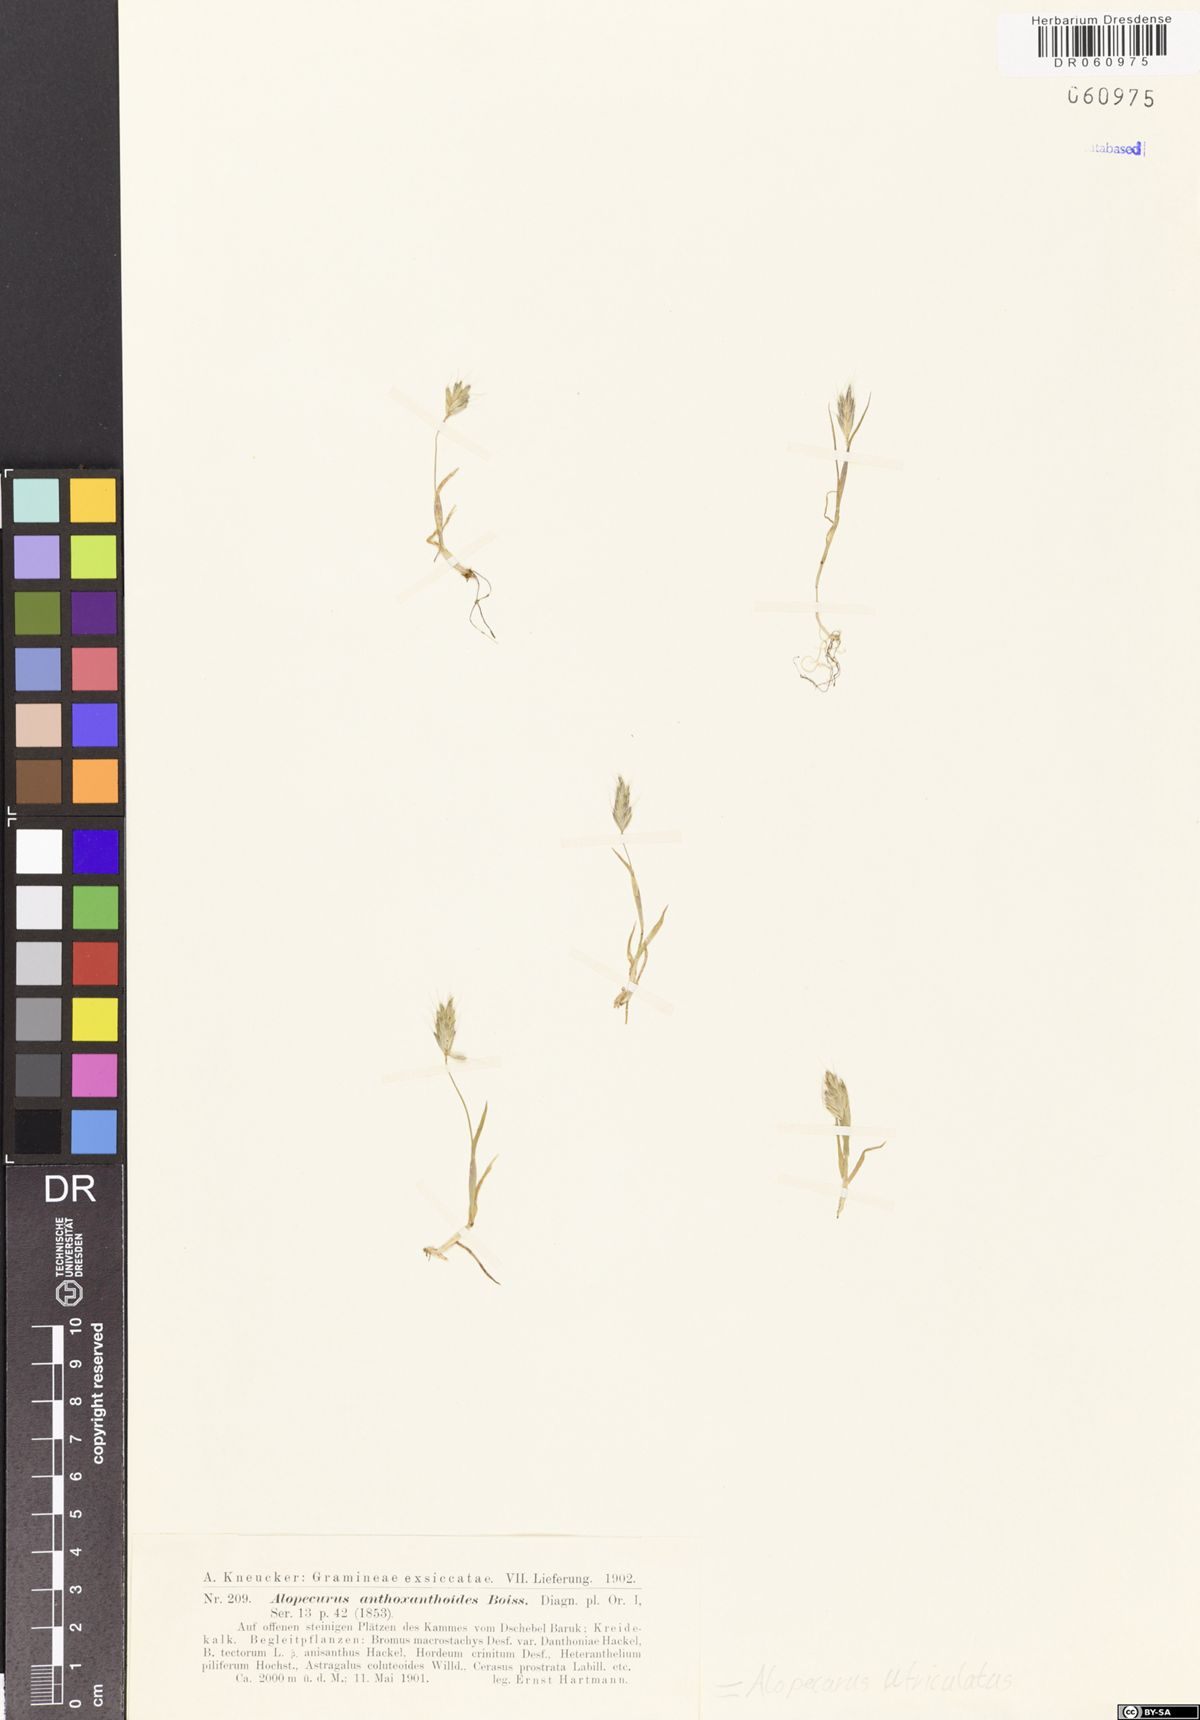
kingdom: Plantae
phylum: Tracheophyta
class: Liliopsida
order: Poales
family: Poaceae
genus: Alopecurus
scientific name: Alopecurus utriculatus
